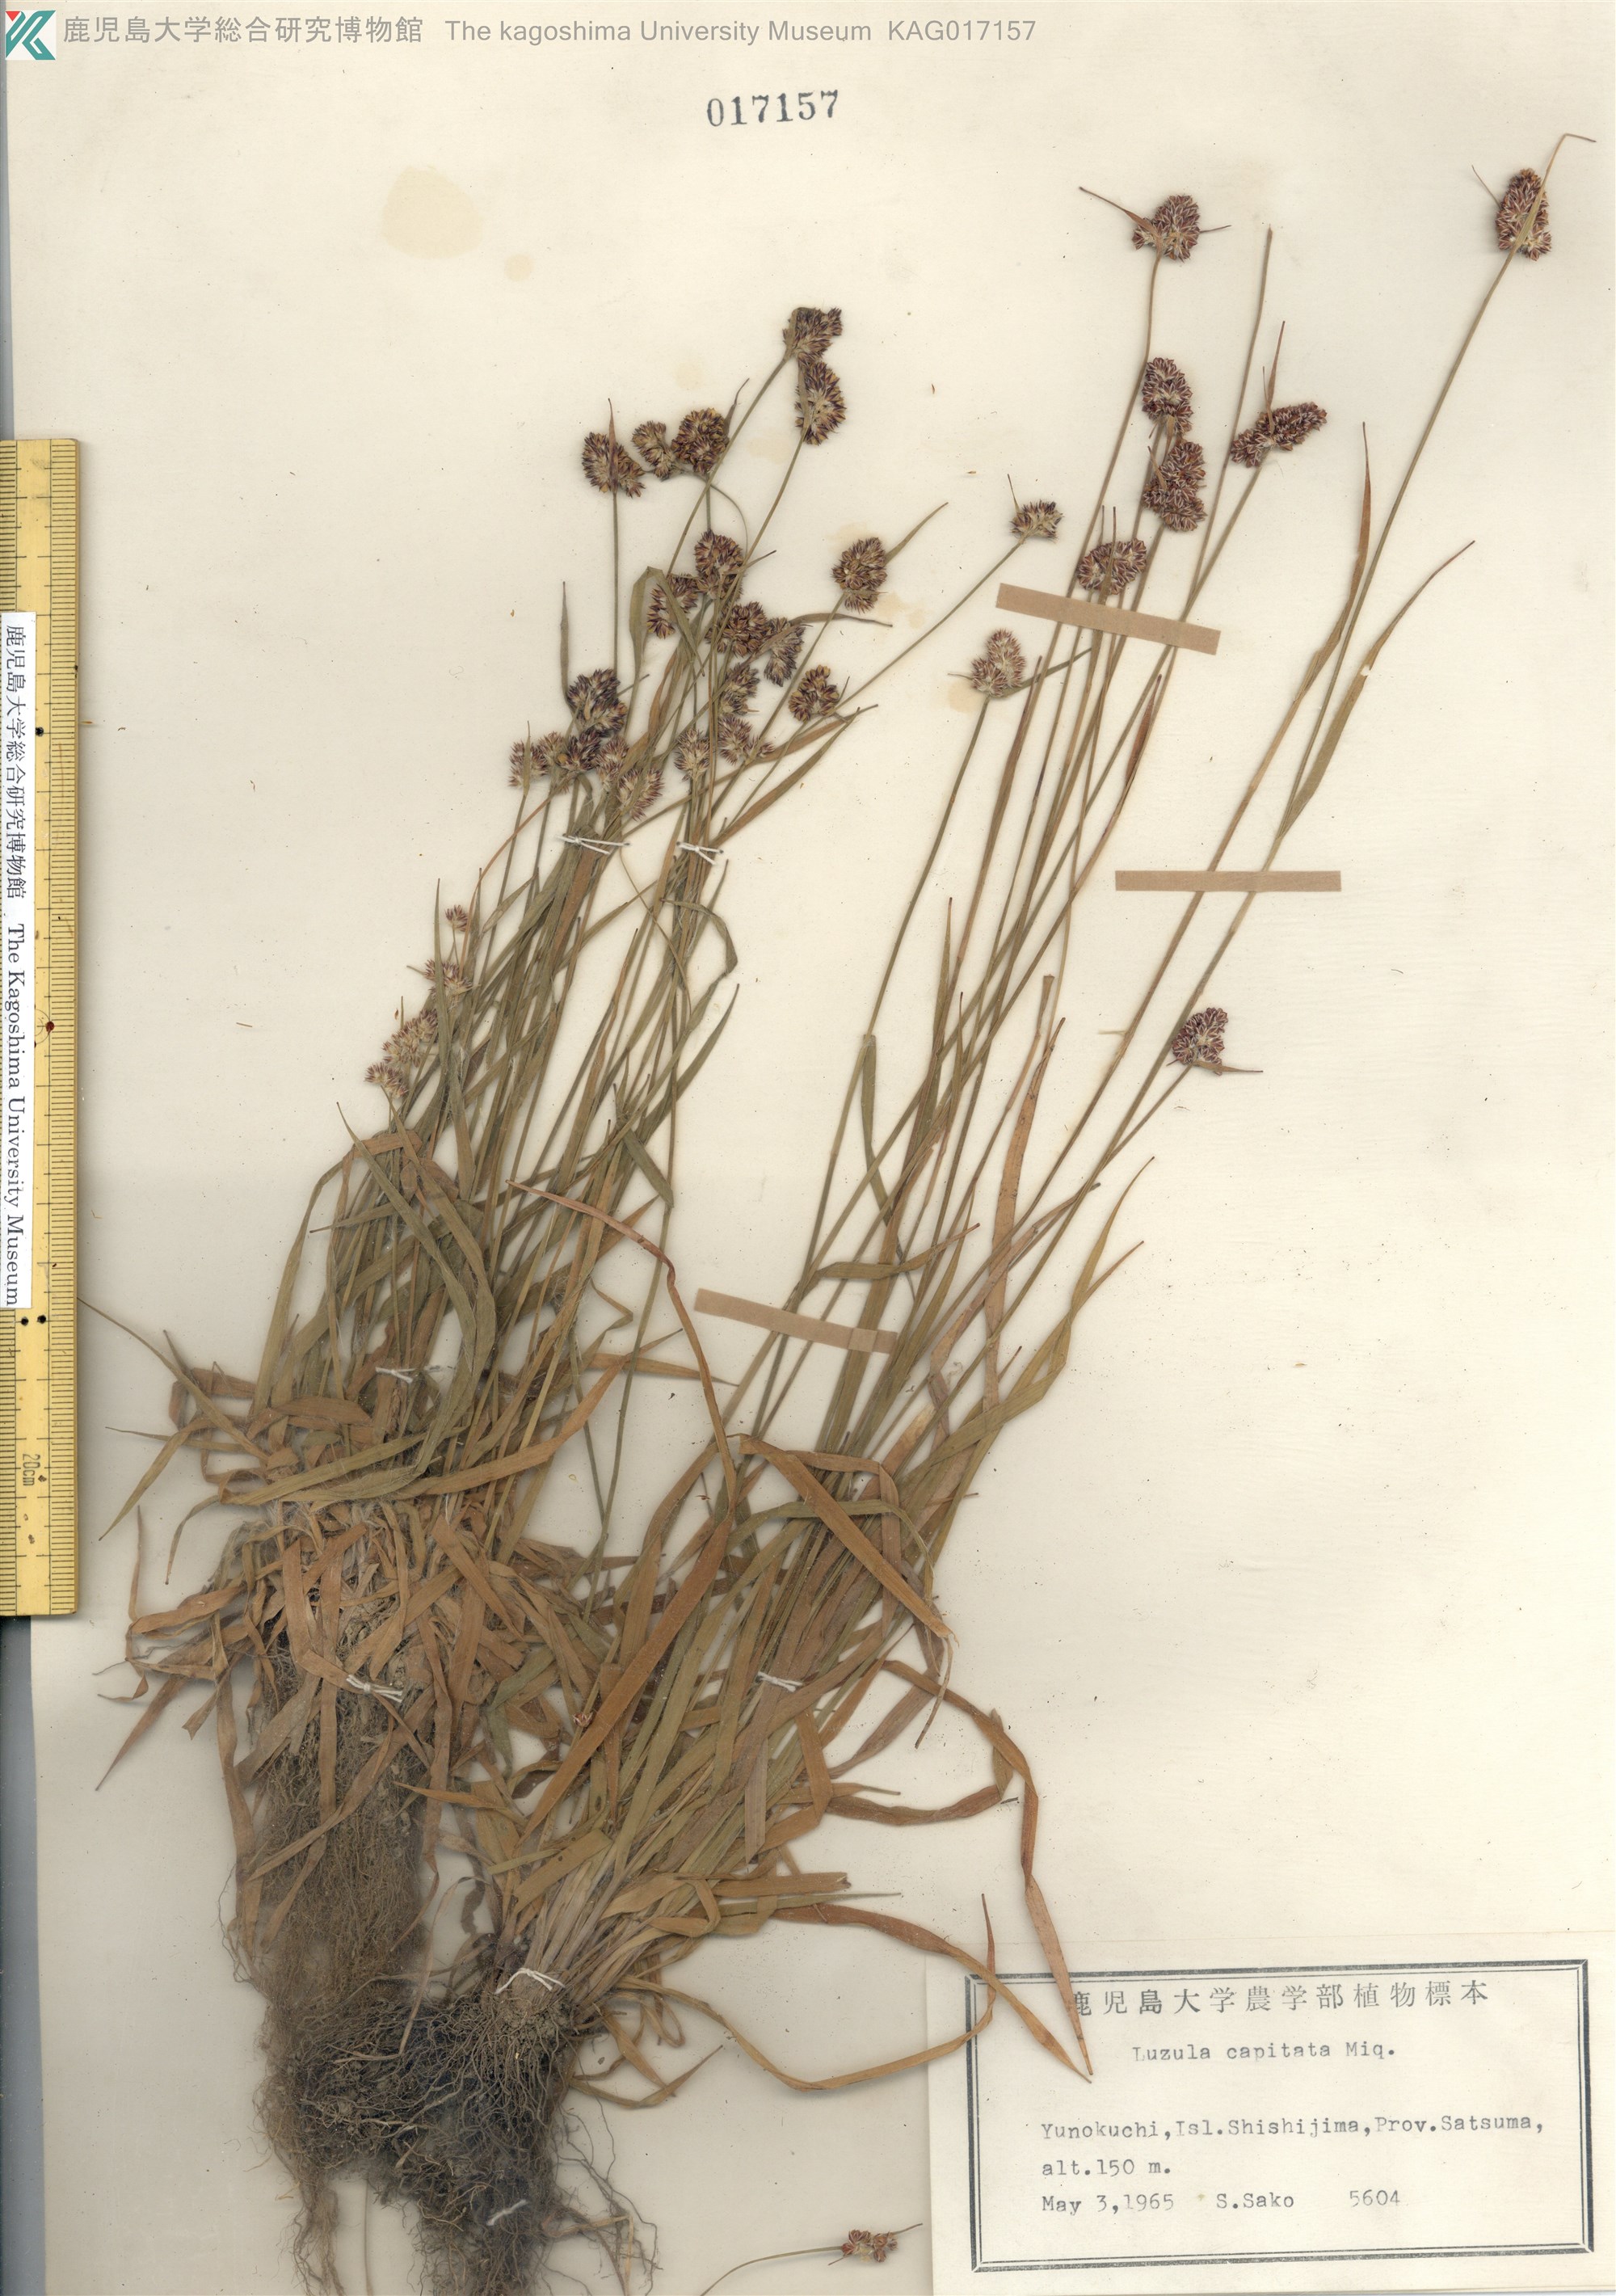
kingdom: Plantae
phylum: Tracheophyta
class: Liliopsida
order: Poales
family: Juncaceae
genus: Luzula
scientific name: Luzula capitata
